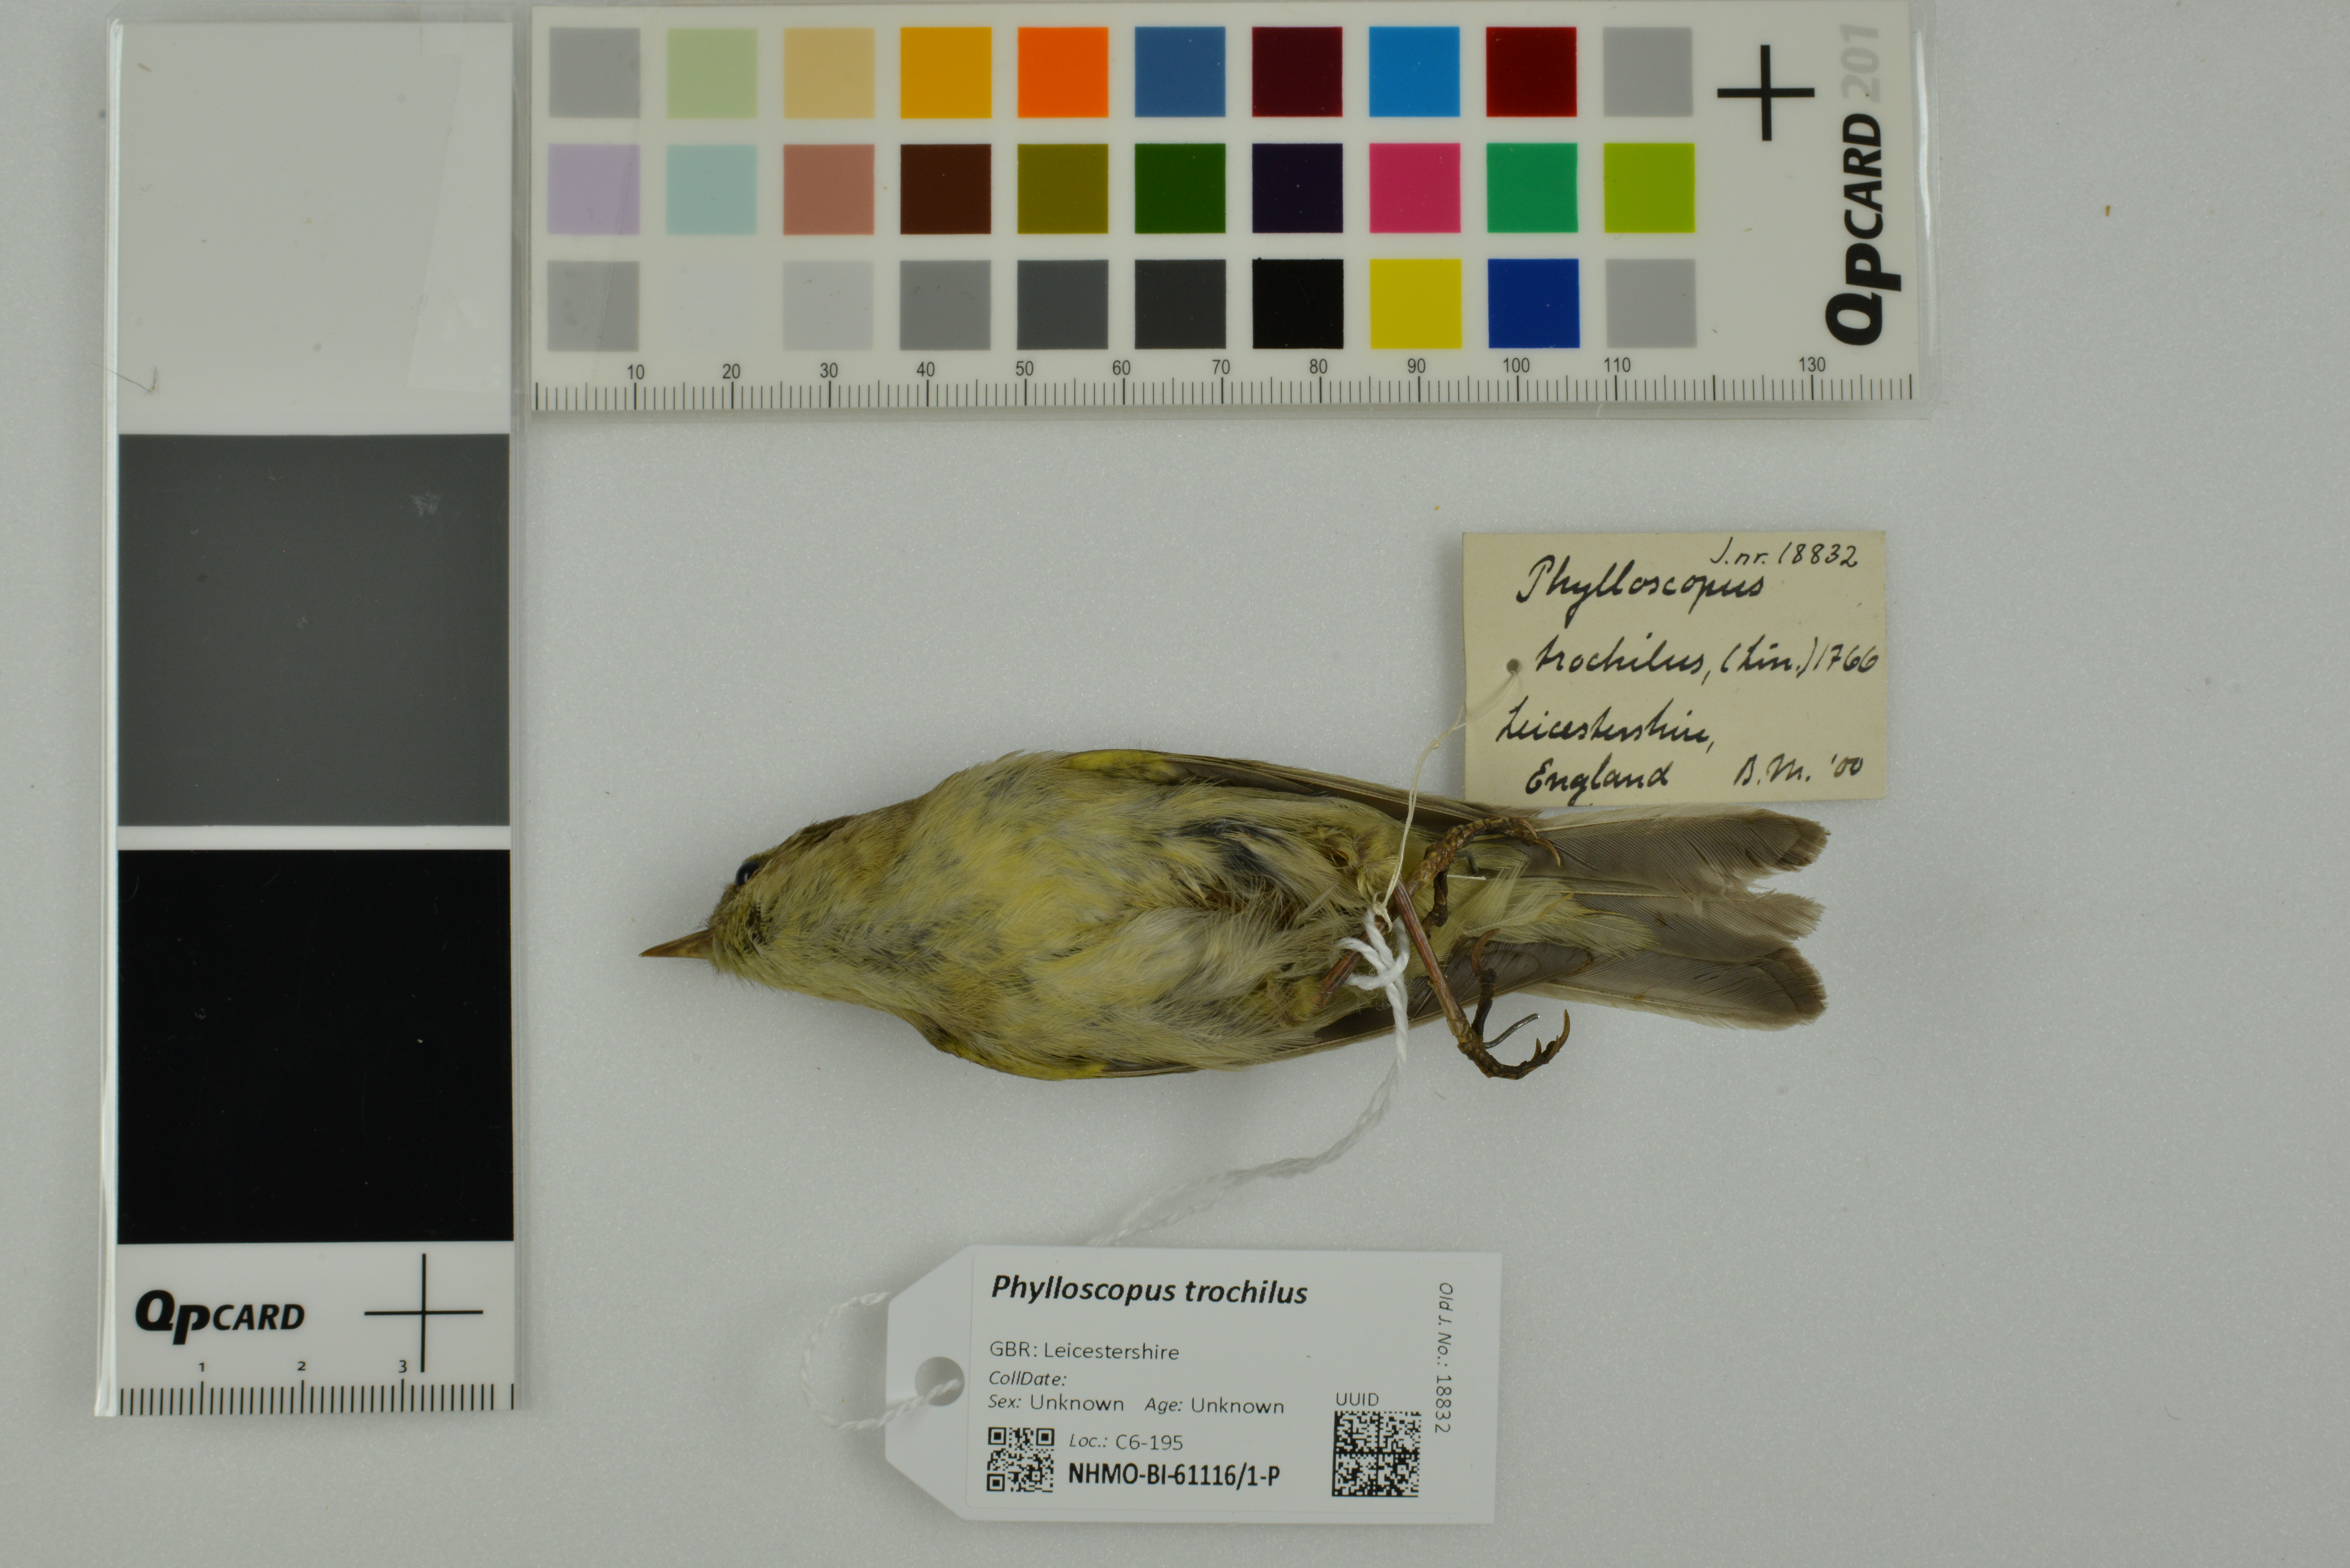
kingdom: Animalia
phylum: Chordata
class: Aves
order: Passeriformes
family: Phylloscopidae
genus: Phylloscopus
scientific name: Phylloscopus trochilus
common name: Willow warbler
